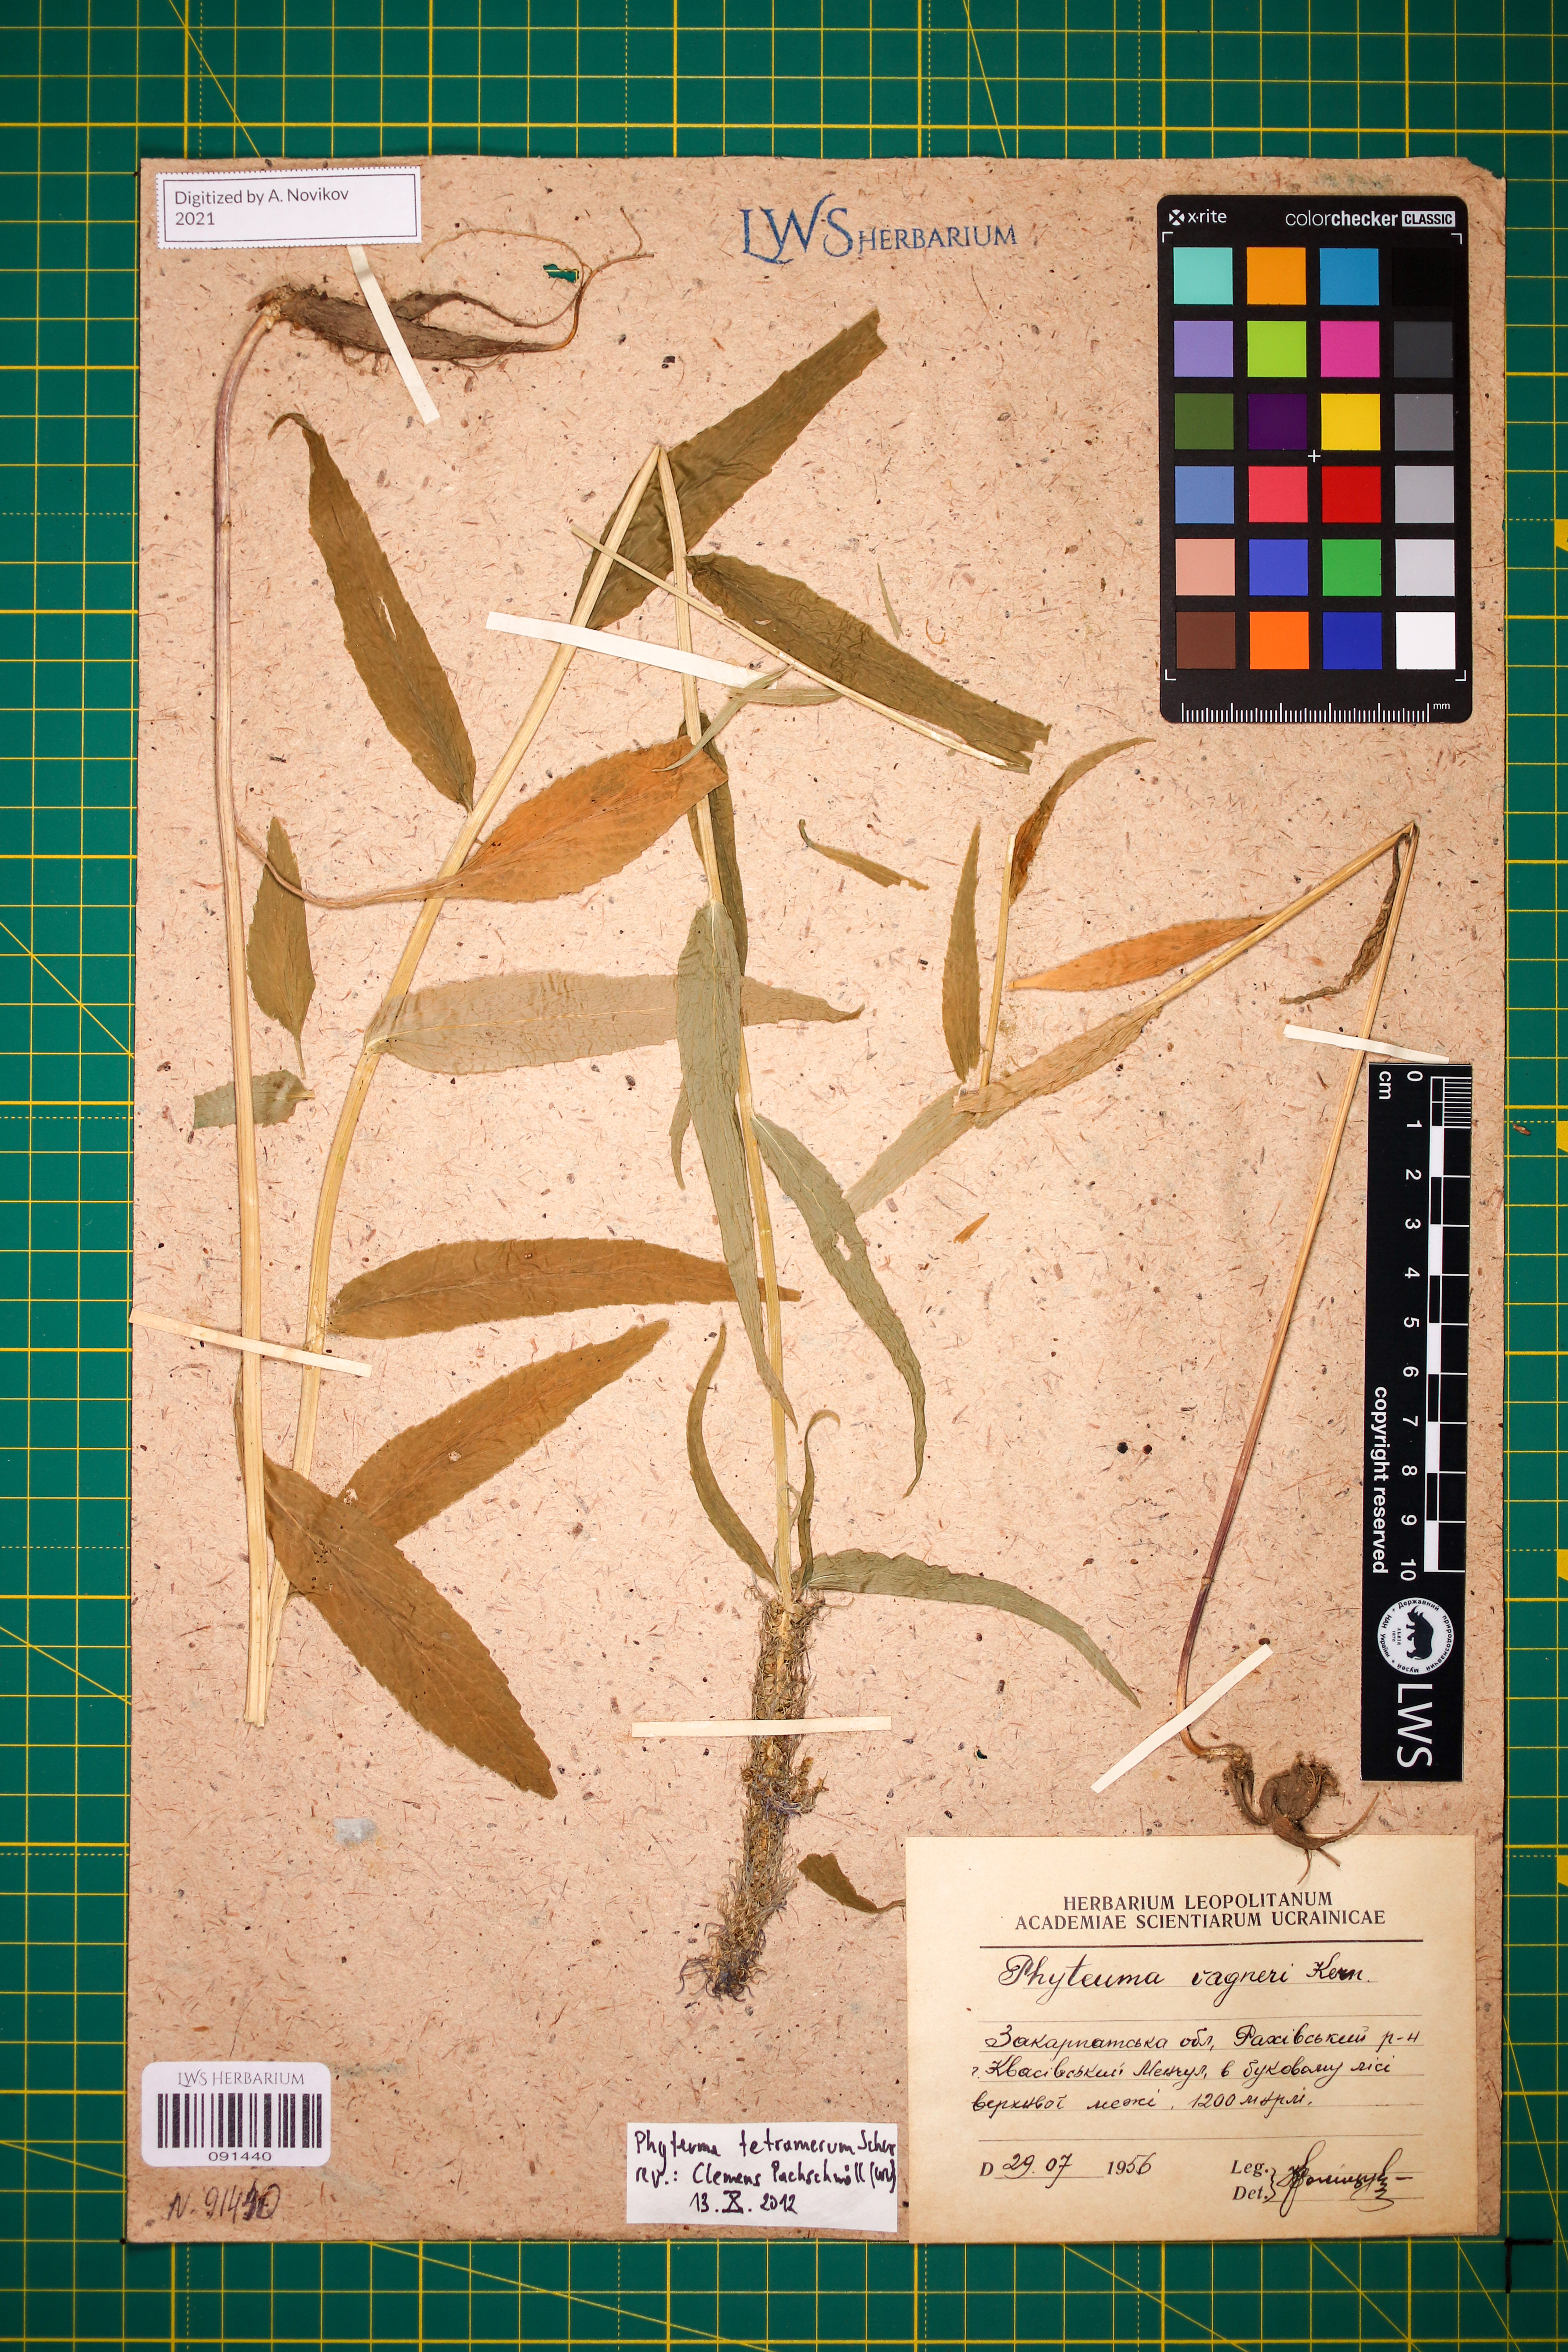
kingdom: Plantae
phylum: Tracheophyta
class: Magnoliopsida
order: Asterales
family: Campanulaceae
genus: Phyteuma
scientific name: Phyteuma tetramerum
